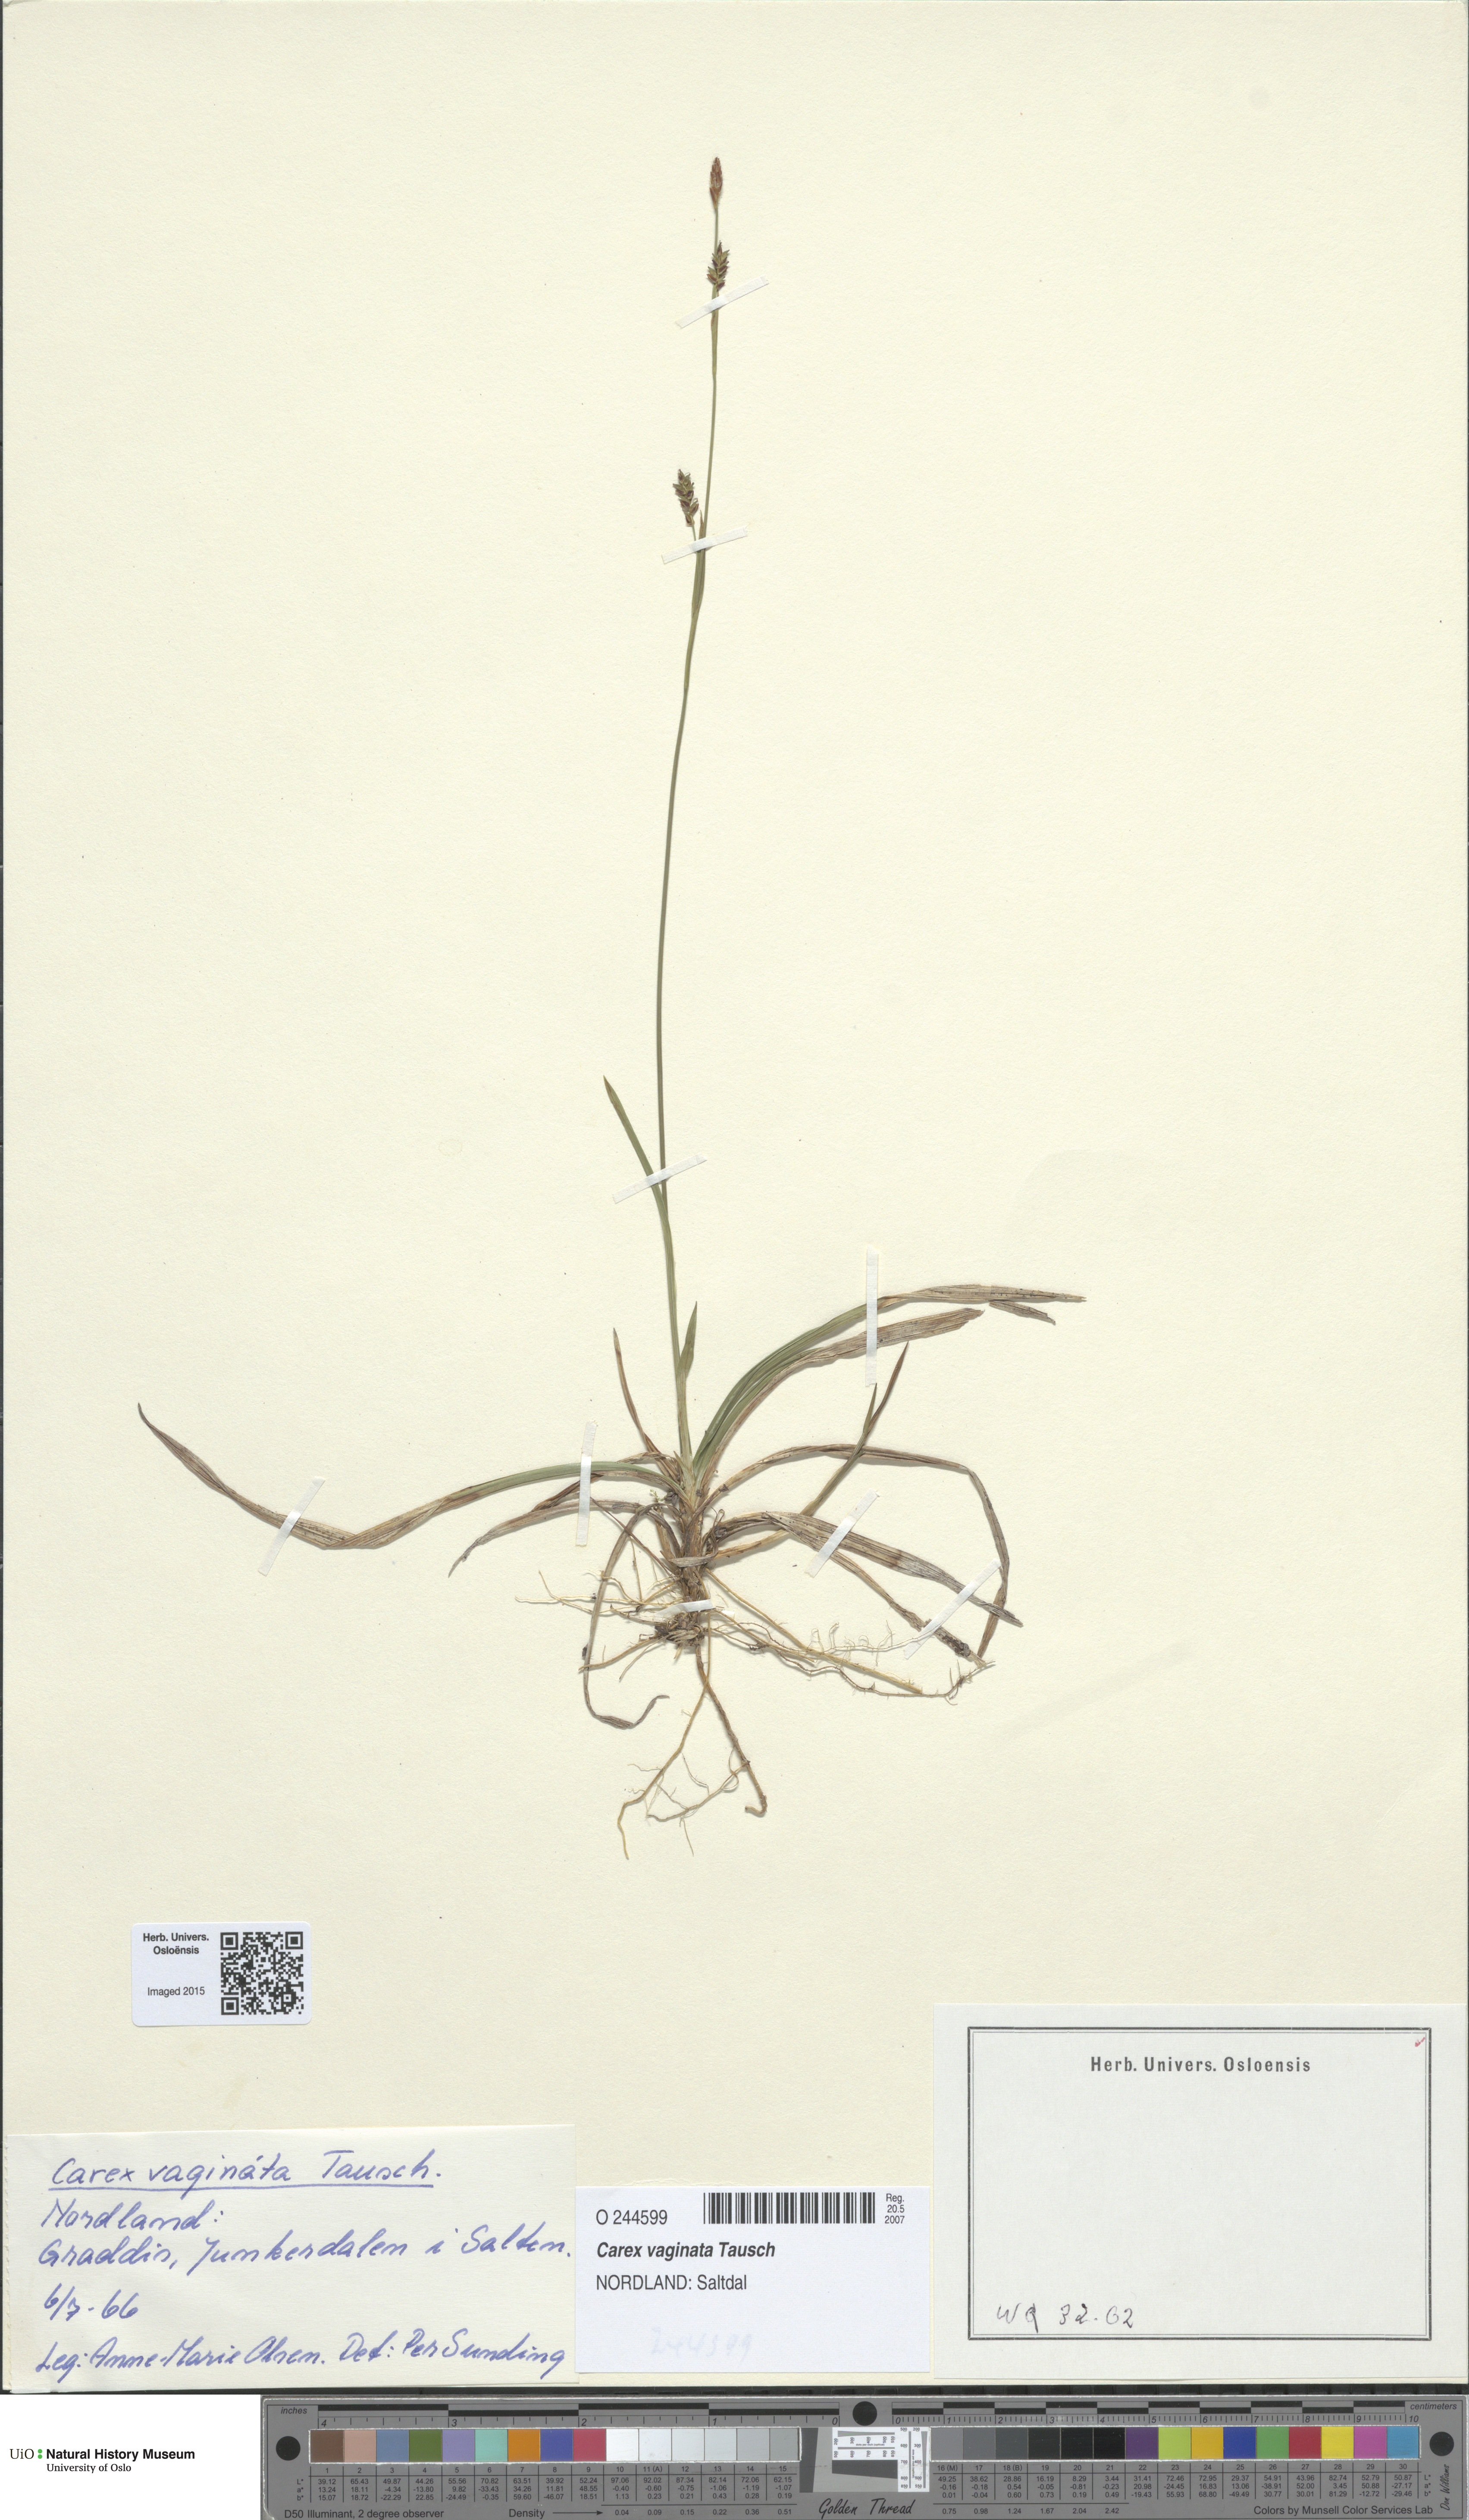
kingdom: Plantae
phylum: Tracheophyta
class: Liliopsida
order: Poales
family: Cyperaceae
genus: Carex
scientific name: Carex vaginata
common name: Sheathed sedge
